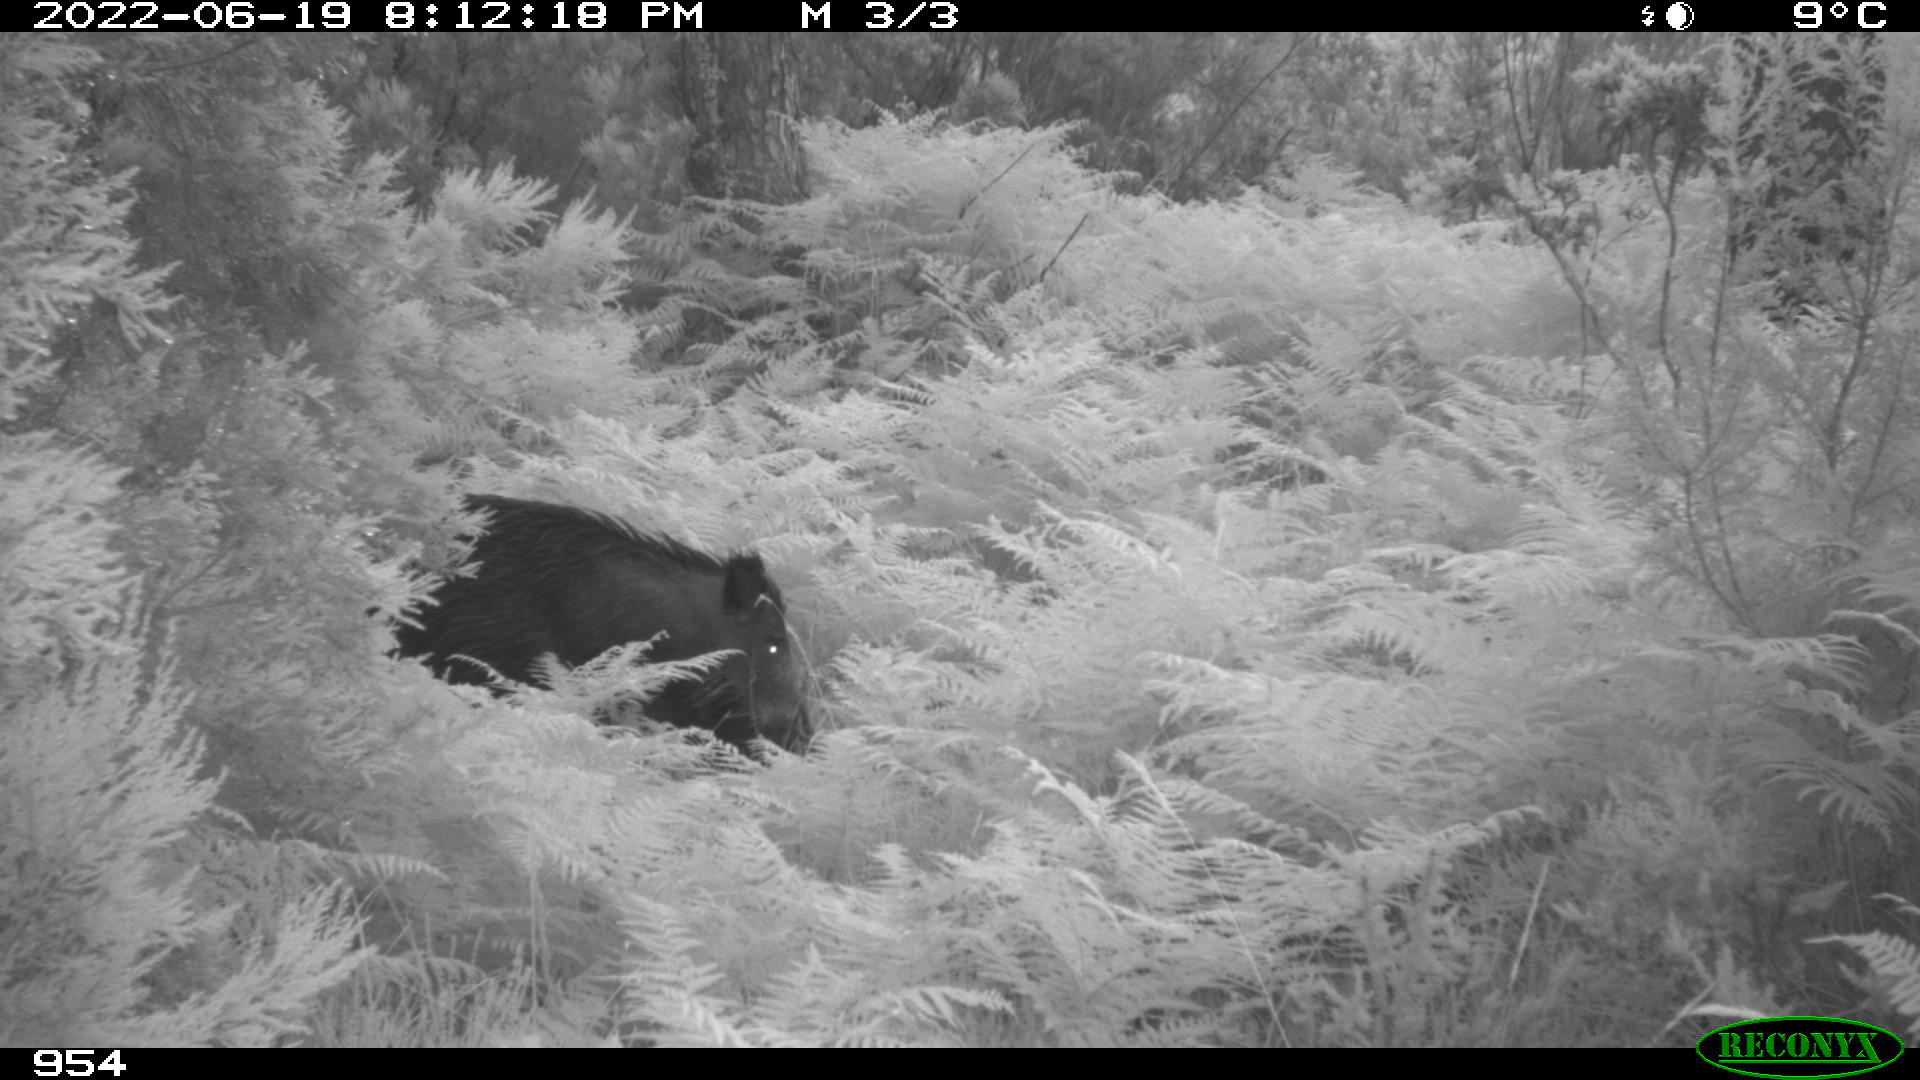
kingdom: Animalia
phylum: Chordata
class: Mammalia
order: Artiodactyla
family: Suidae
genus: Sus
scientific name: Sus scrofa
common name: Wild boar
